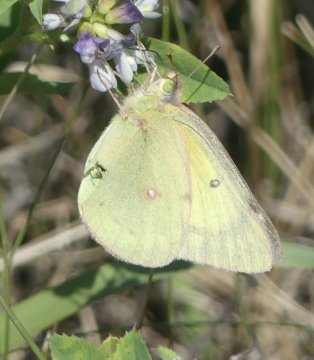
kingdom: Animalia
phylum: Arthropoda
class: Insecta
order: Lepidoptera
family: Pieridae
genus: Colias
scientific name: Colias philodice
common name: Clouded Sulphur
